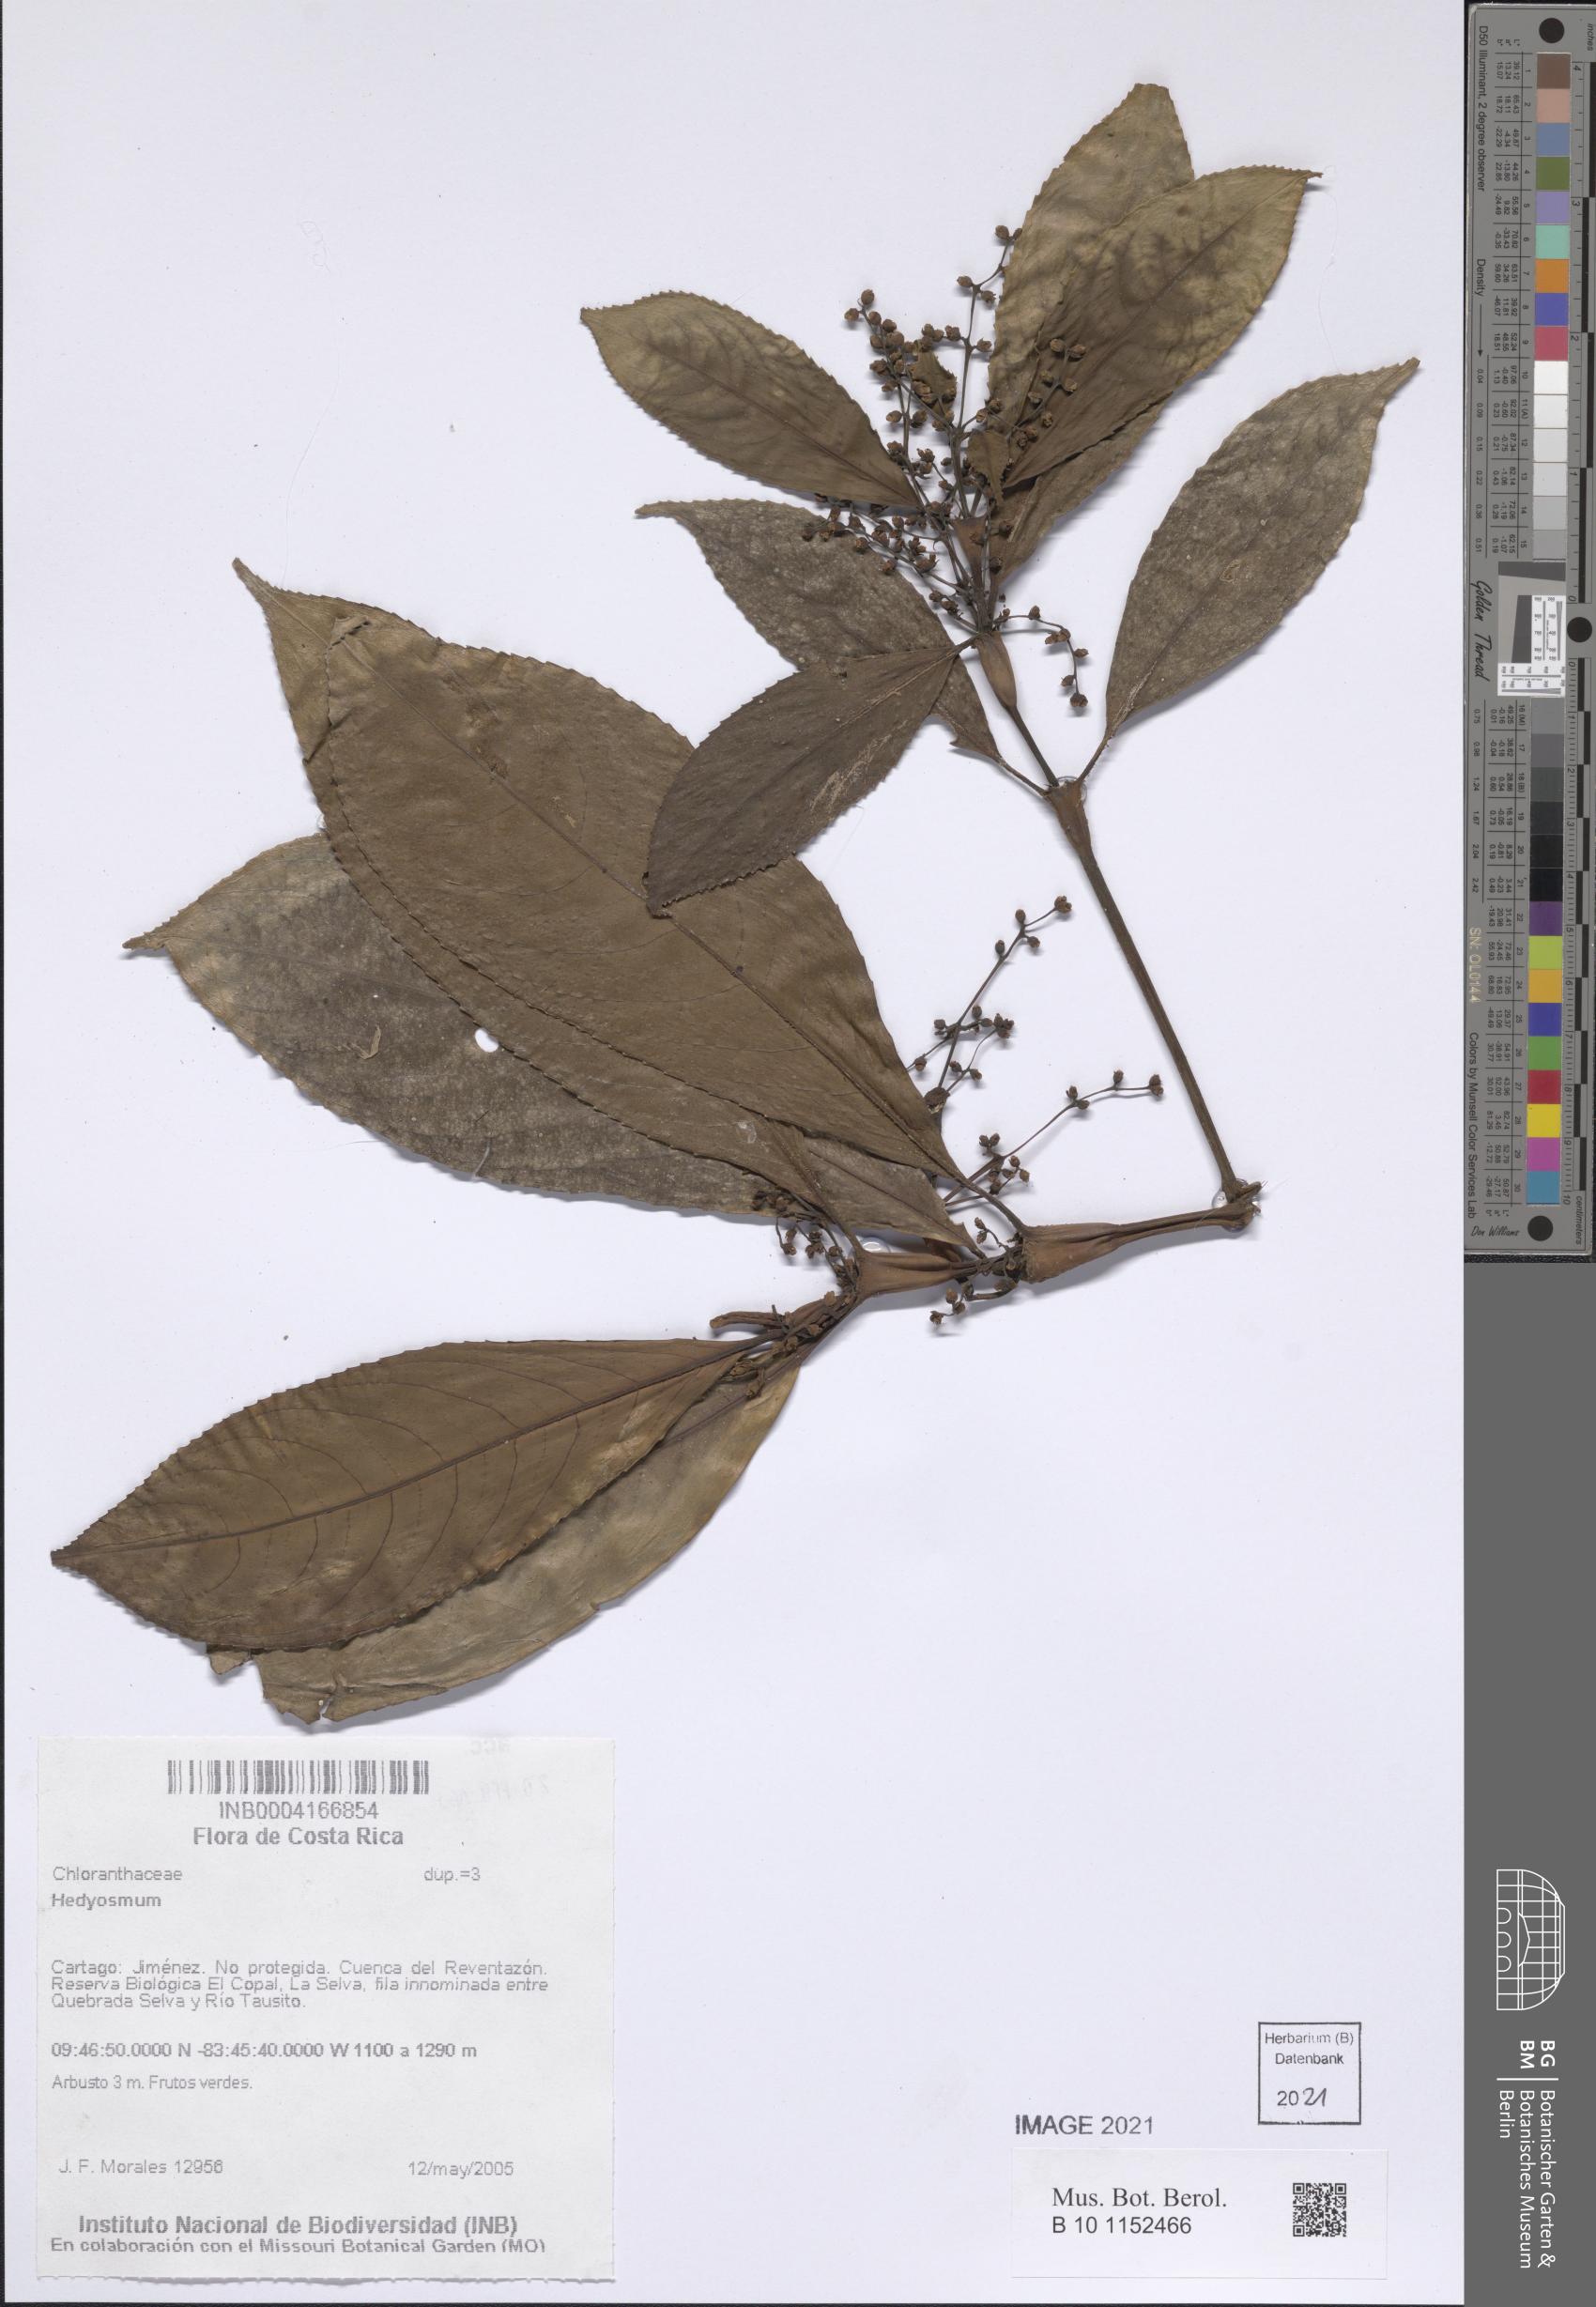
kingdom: Plantae
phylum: Tracheophyta
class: Magnoliopsida
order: Chloranthales
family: Chloranthaceae
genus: Hedyosmum
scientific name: Hedyosmum
